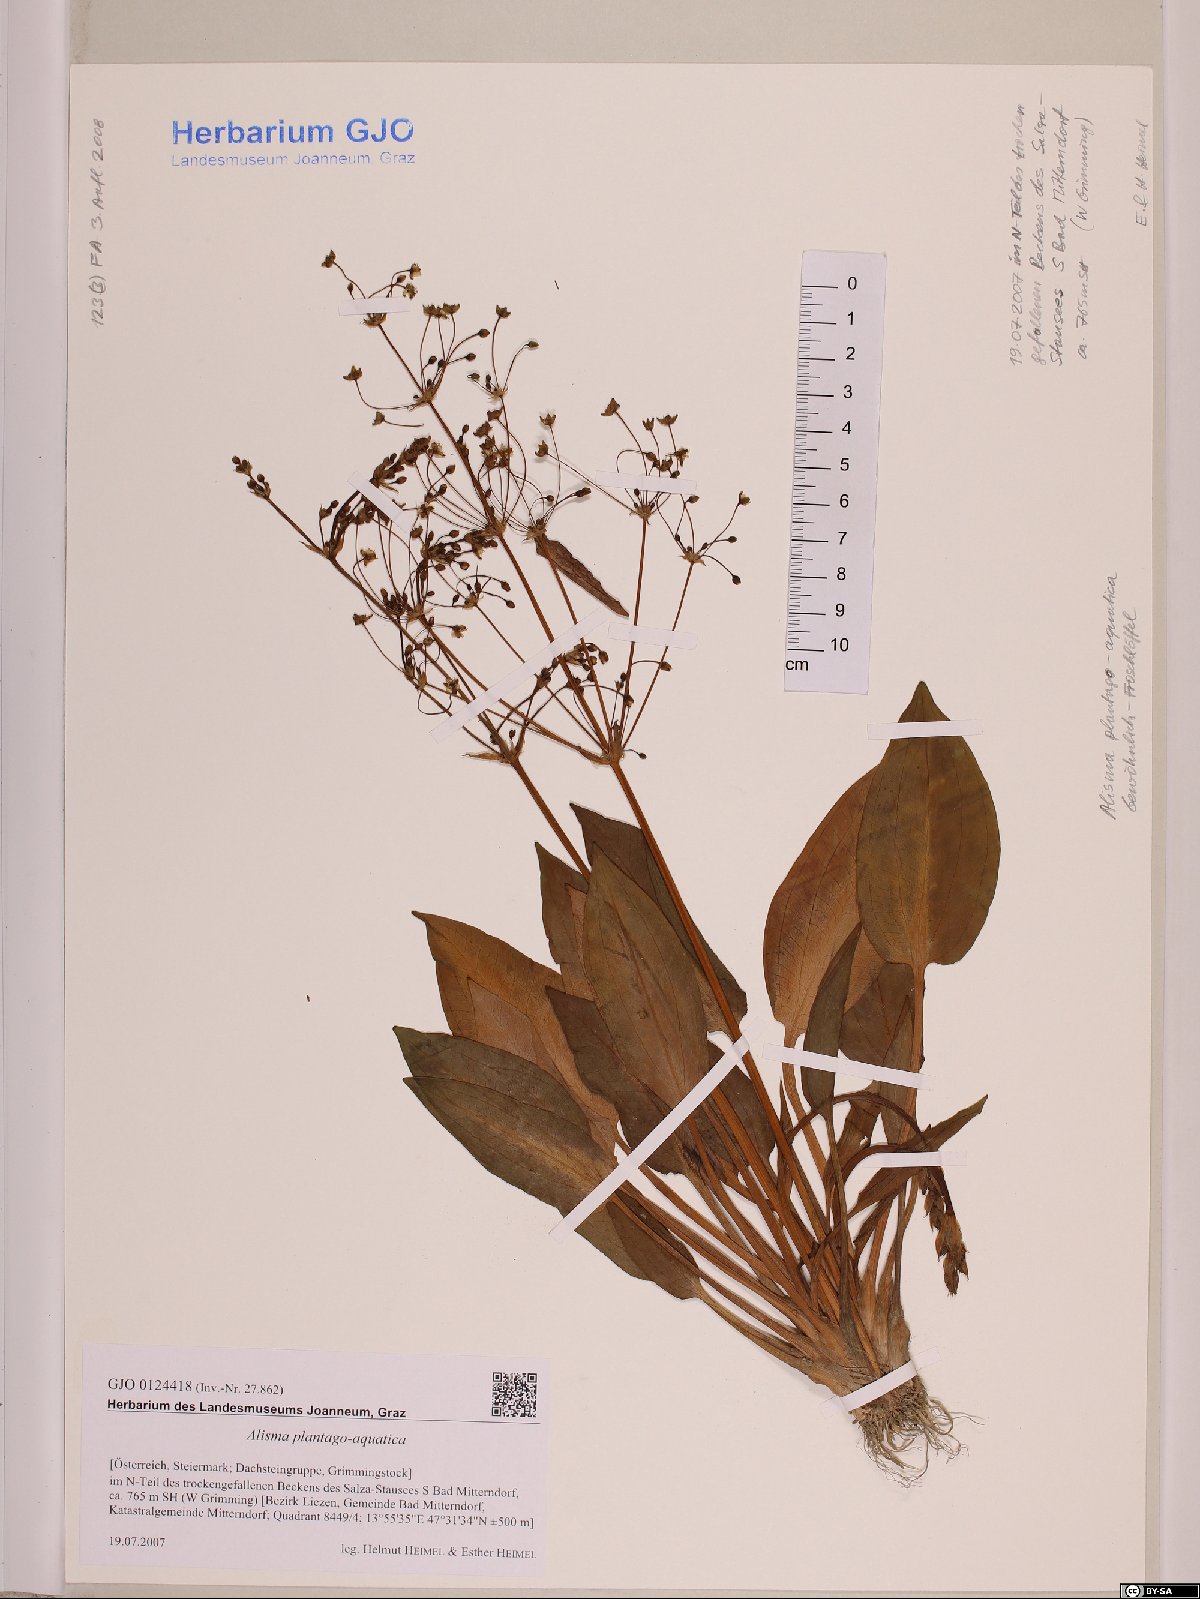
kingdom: Plantae
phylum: Tracheophyta
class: Liliopsida
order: Alismatales
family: Alismataceae
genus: Alisma
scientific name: Alisma plantago-aquatica
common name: Water-plantain
